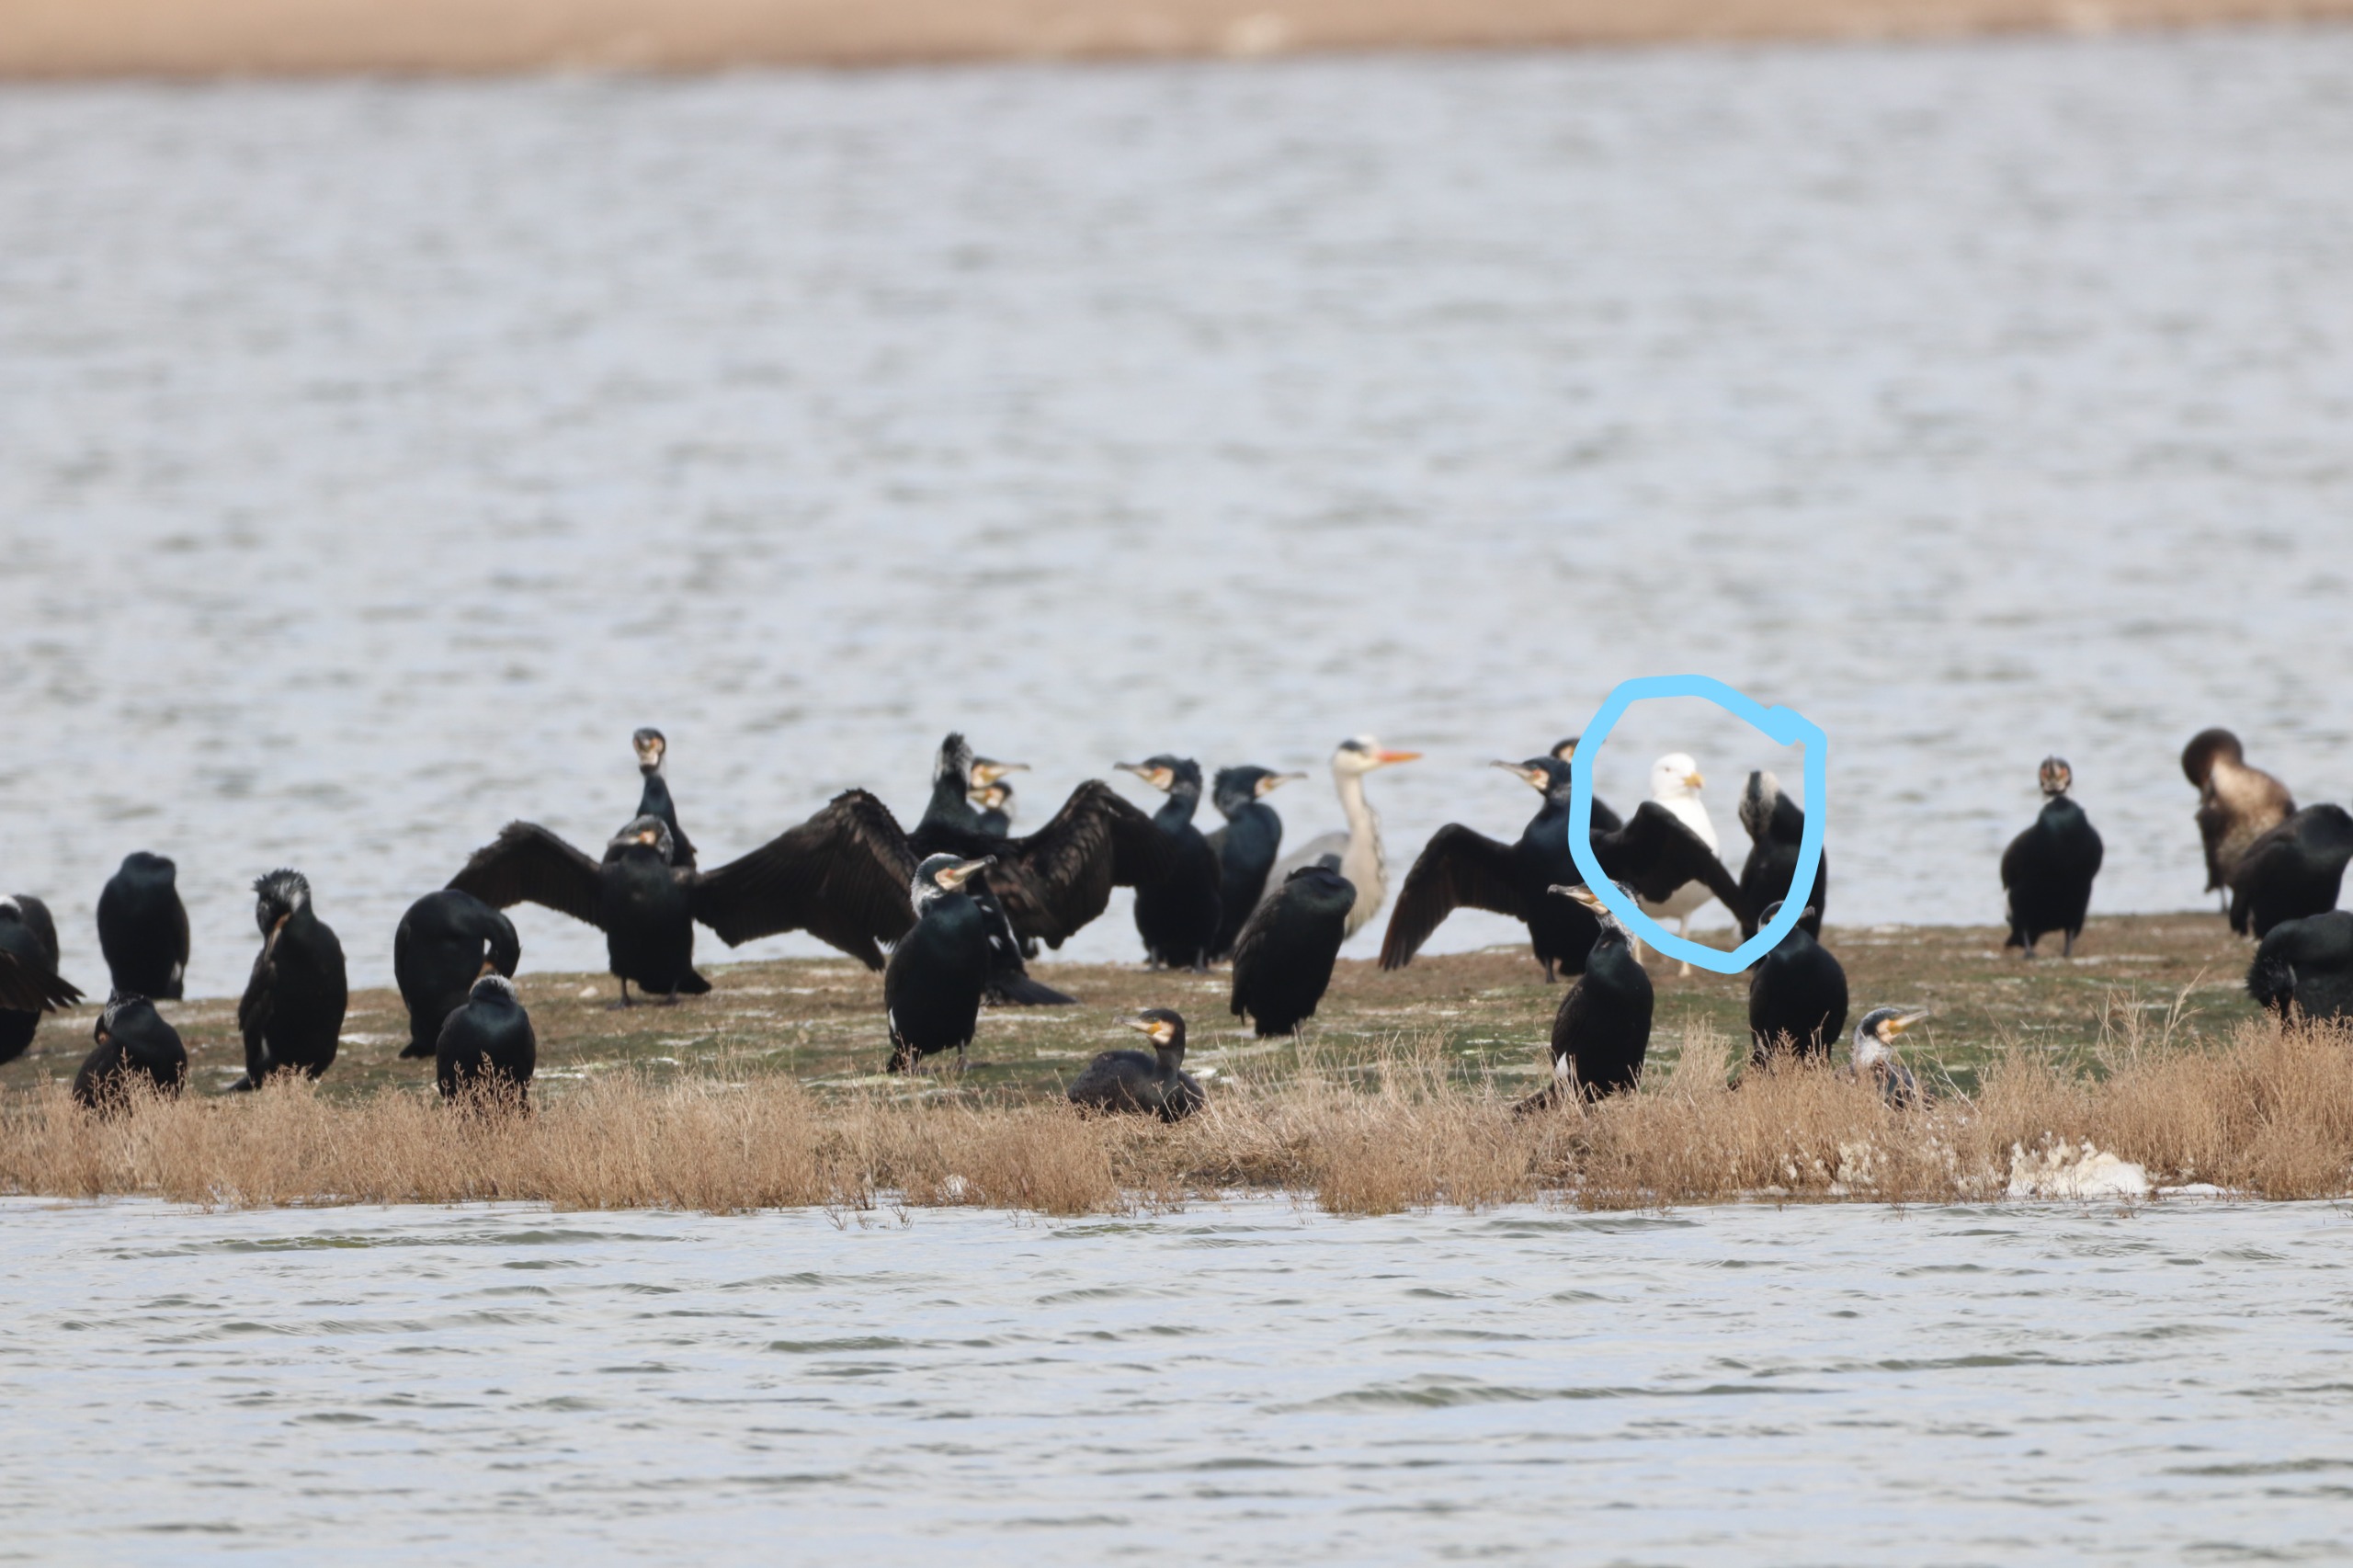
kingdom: Animalia
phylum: Chordata
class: Aves
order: Charadriiformes
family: Laridae
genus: Larus
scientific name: Larus argentatus
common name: Sølvmåge
